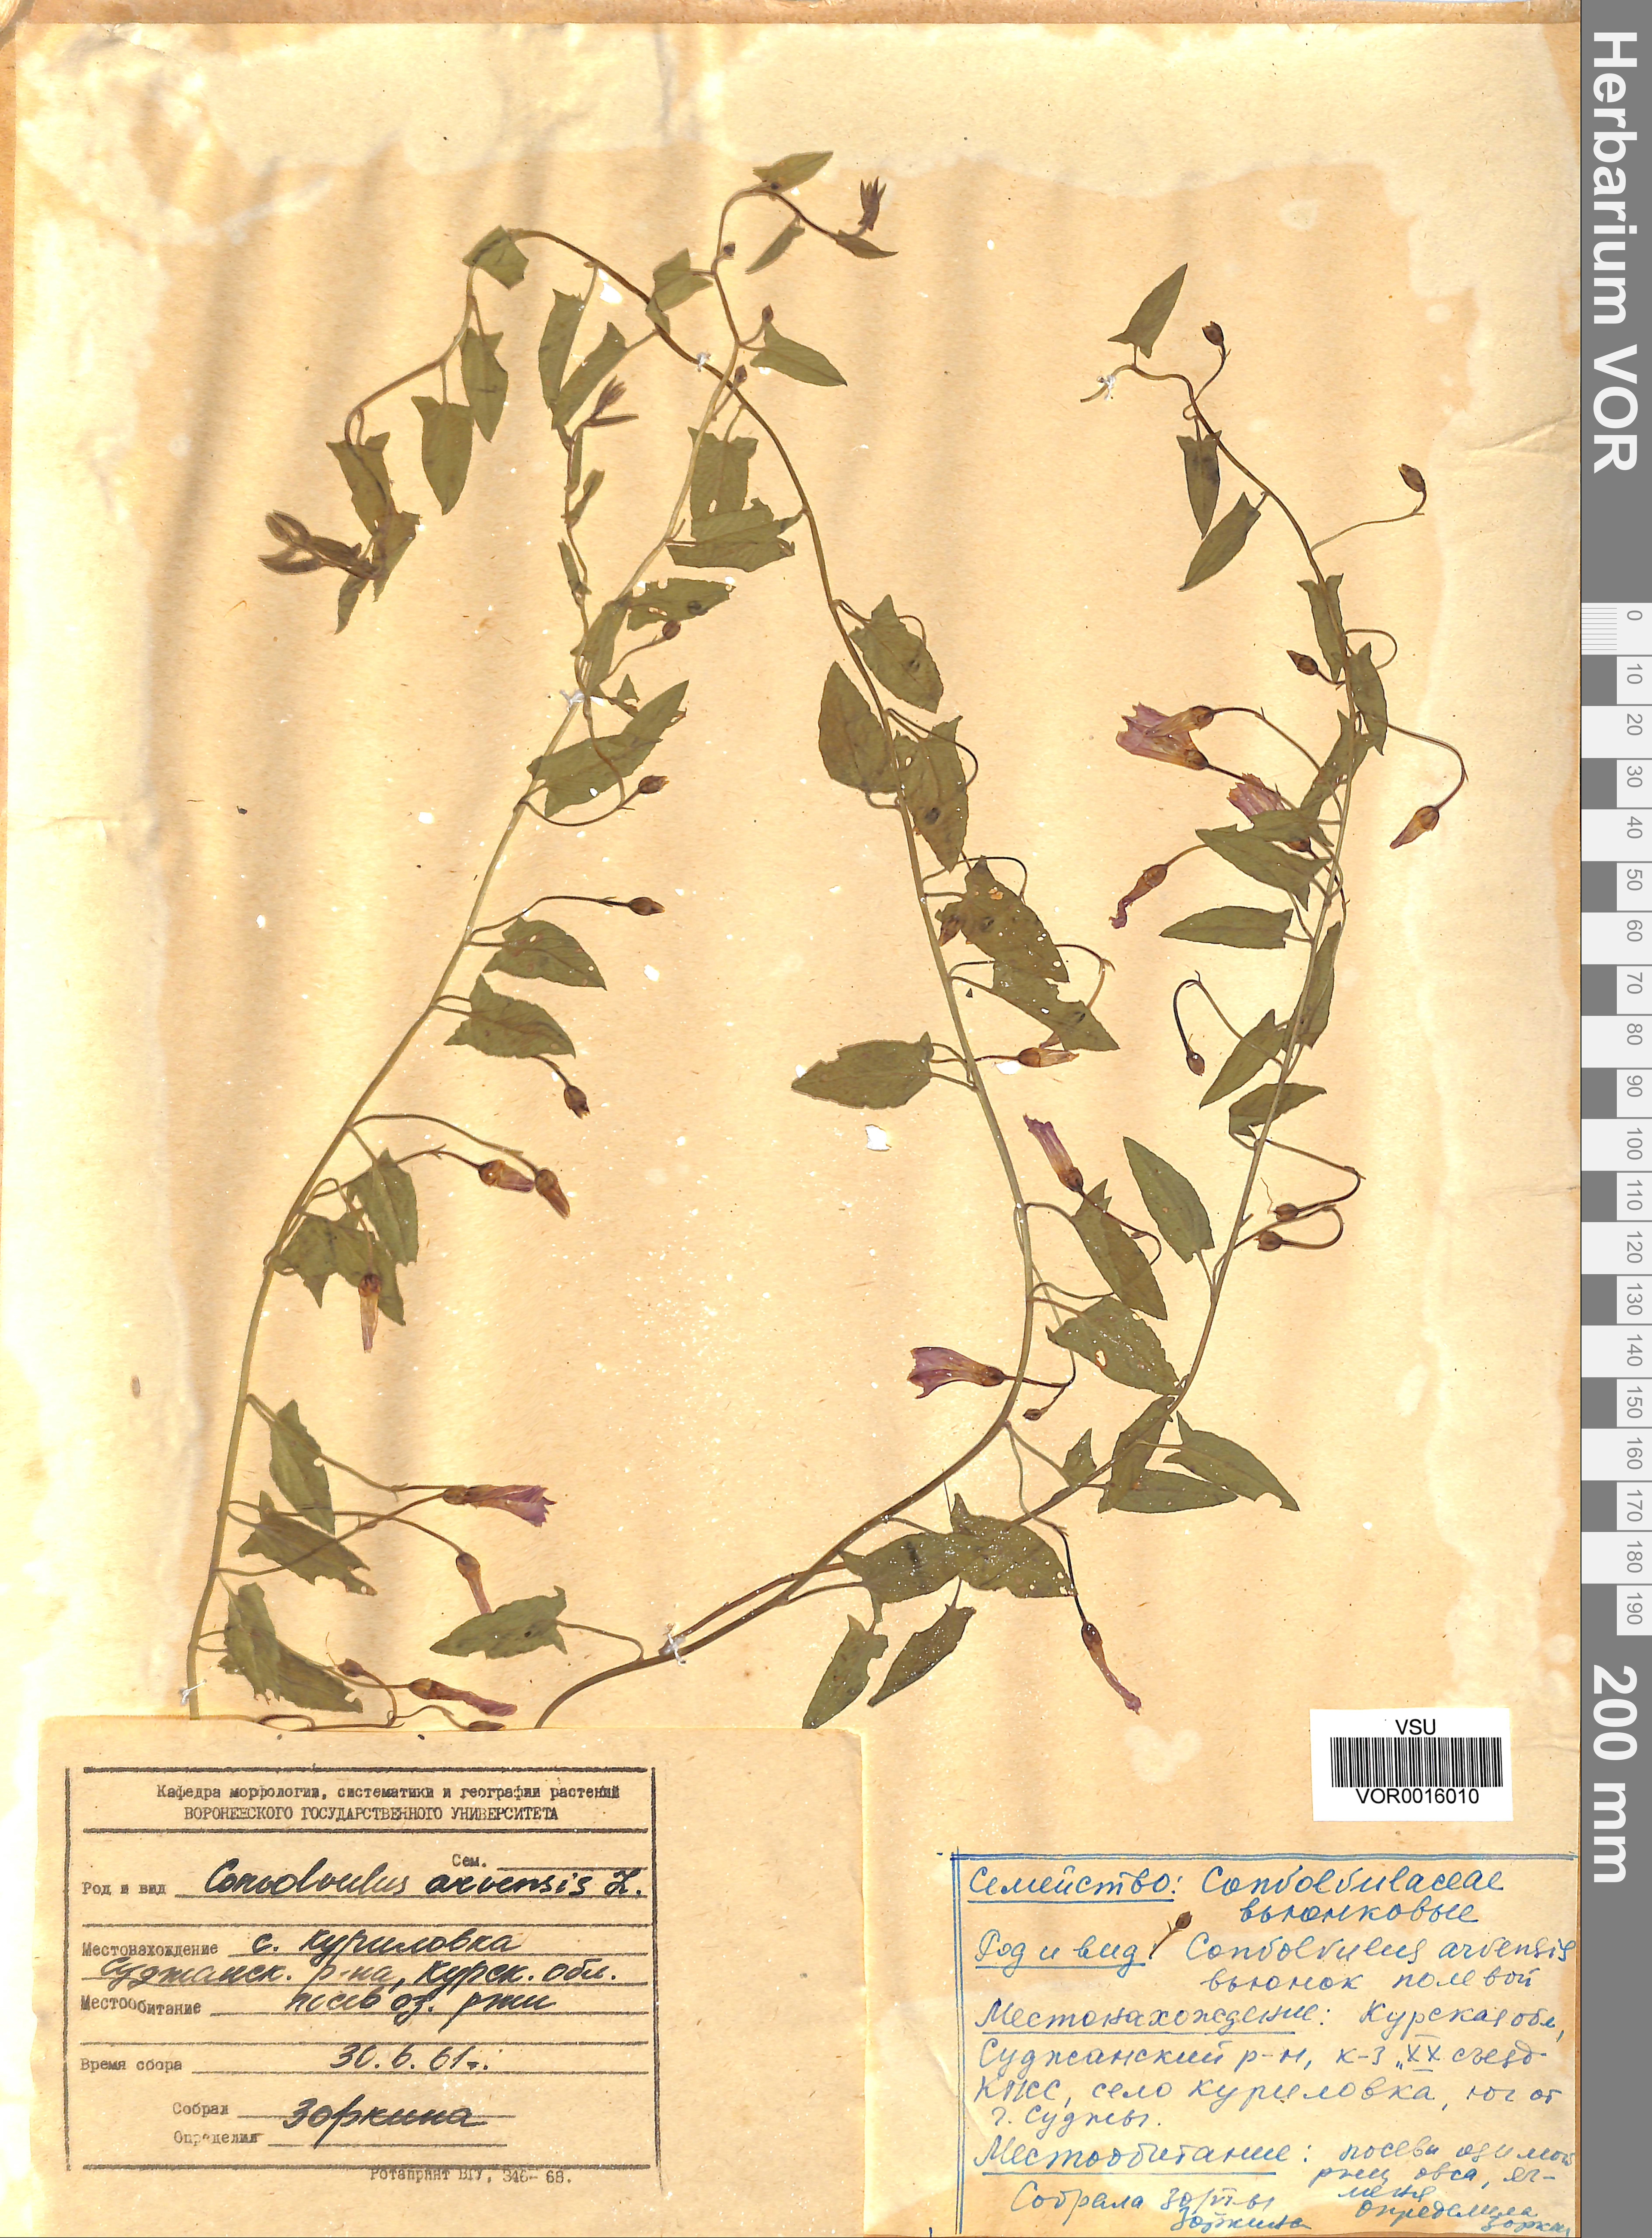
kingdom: Plantae
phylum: Tracheophyta
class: Magnoliopsida
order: Solanales
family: Convolvulaceae
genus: Convolvulus
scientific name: Convolvulus arvensis
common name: Field bindweed
